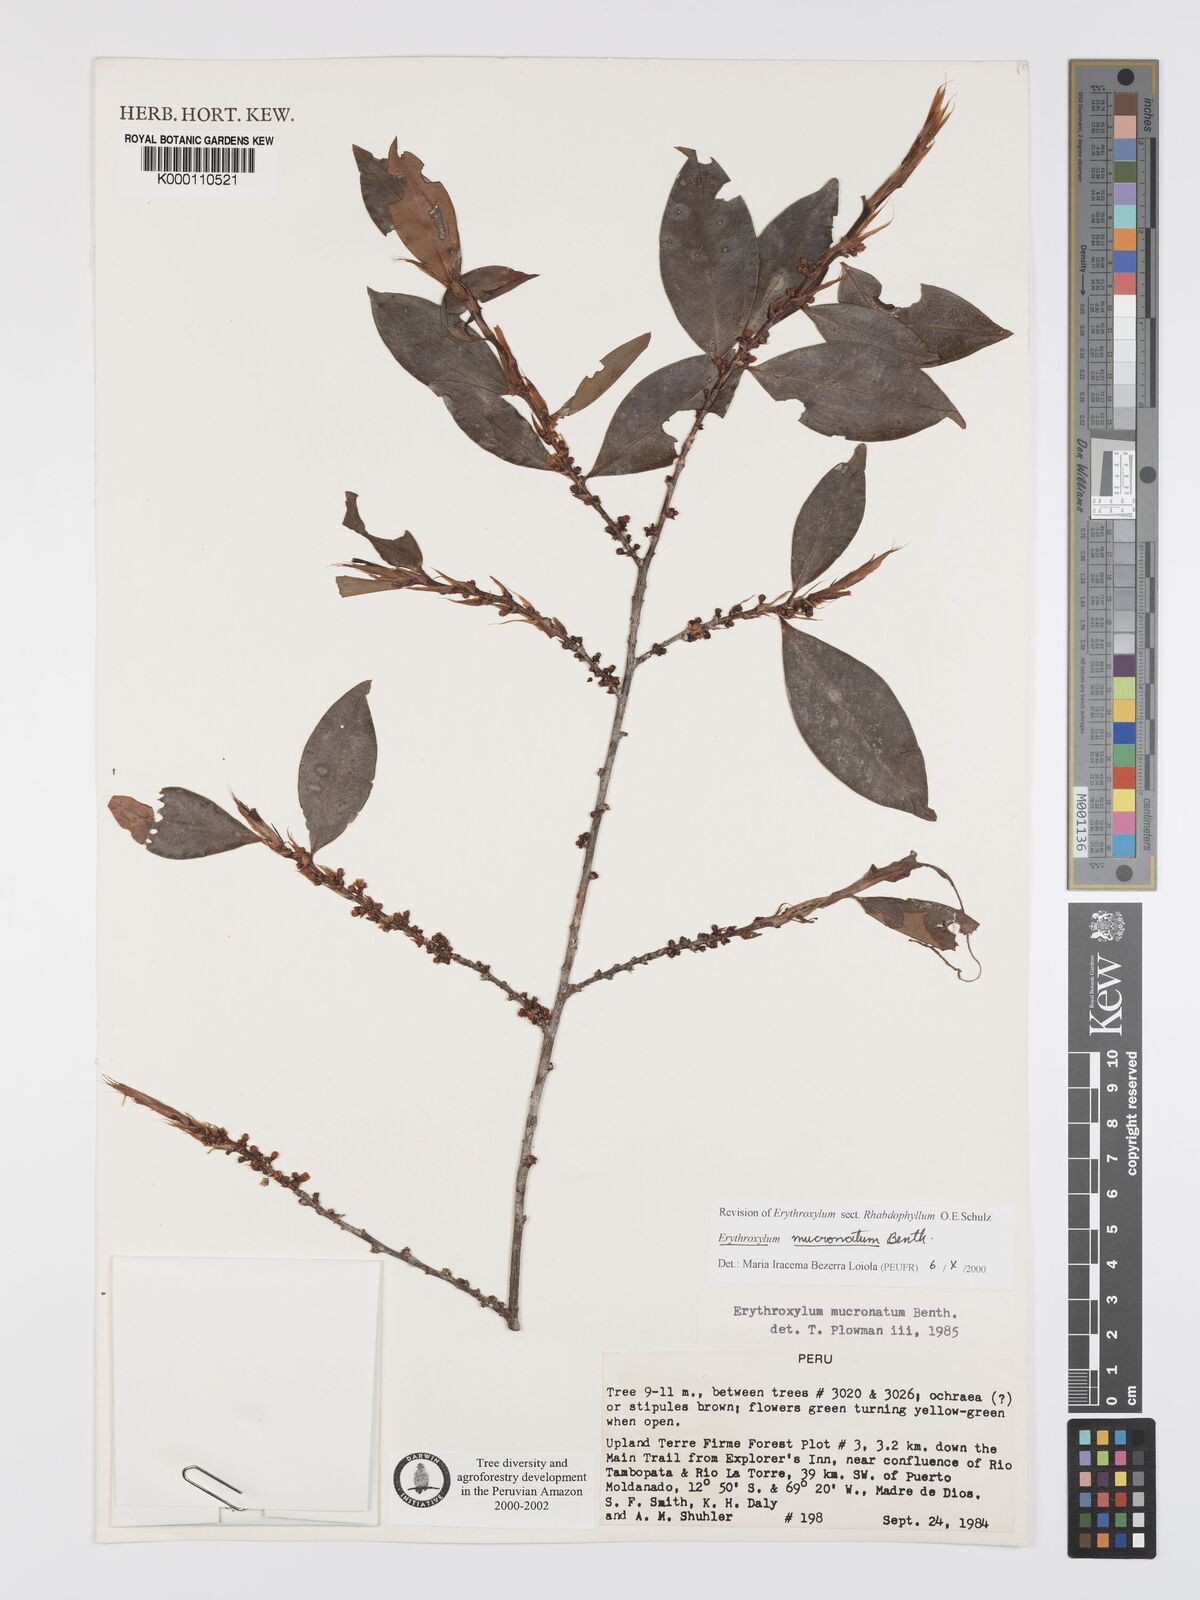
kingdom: Plantae
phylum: Tracheophyta
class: Magnoliopsida
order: Malpighiales
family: Erythroxylaceae
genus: Erythroxylum
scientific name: Erythroxylum mucronatum
